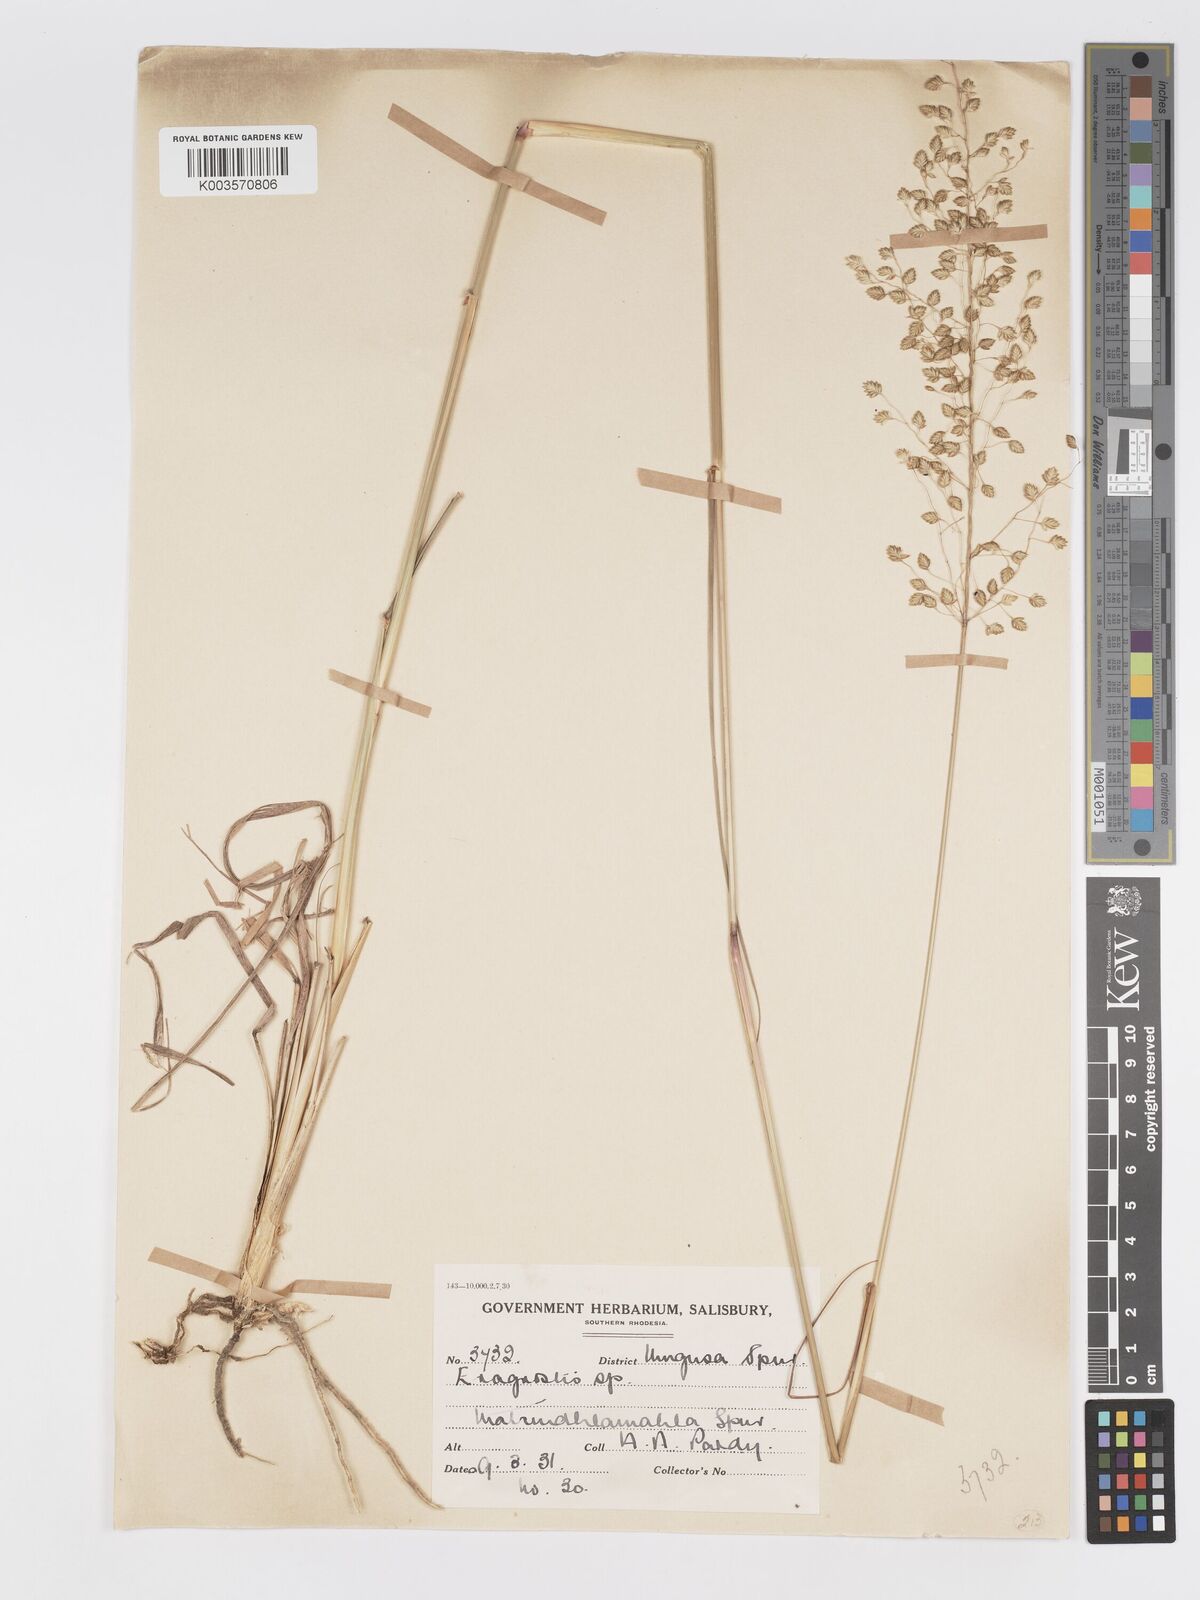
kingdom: Plantae
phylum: Tracheophyta
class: Liliopsida
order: Poales
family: Poaceae
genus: Eragrostis
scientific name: Eragrostis cimicina
